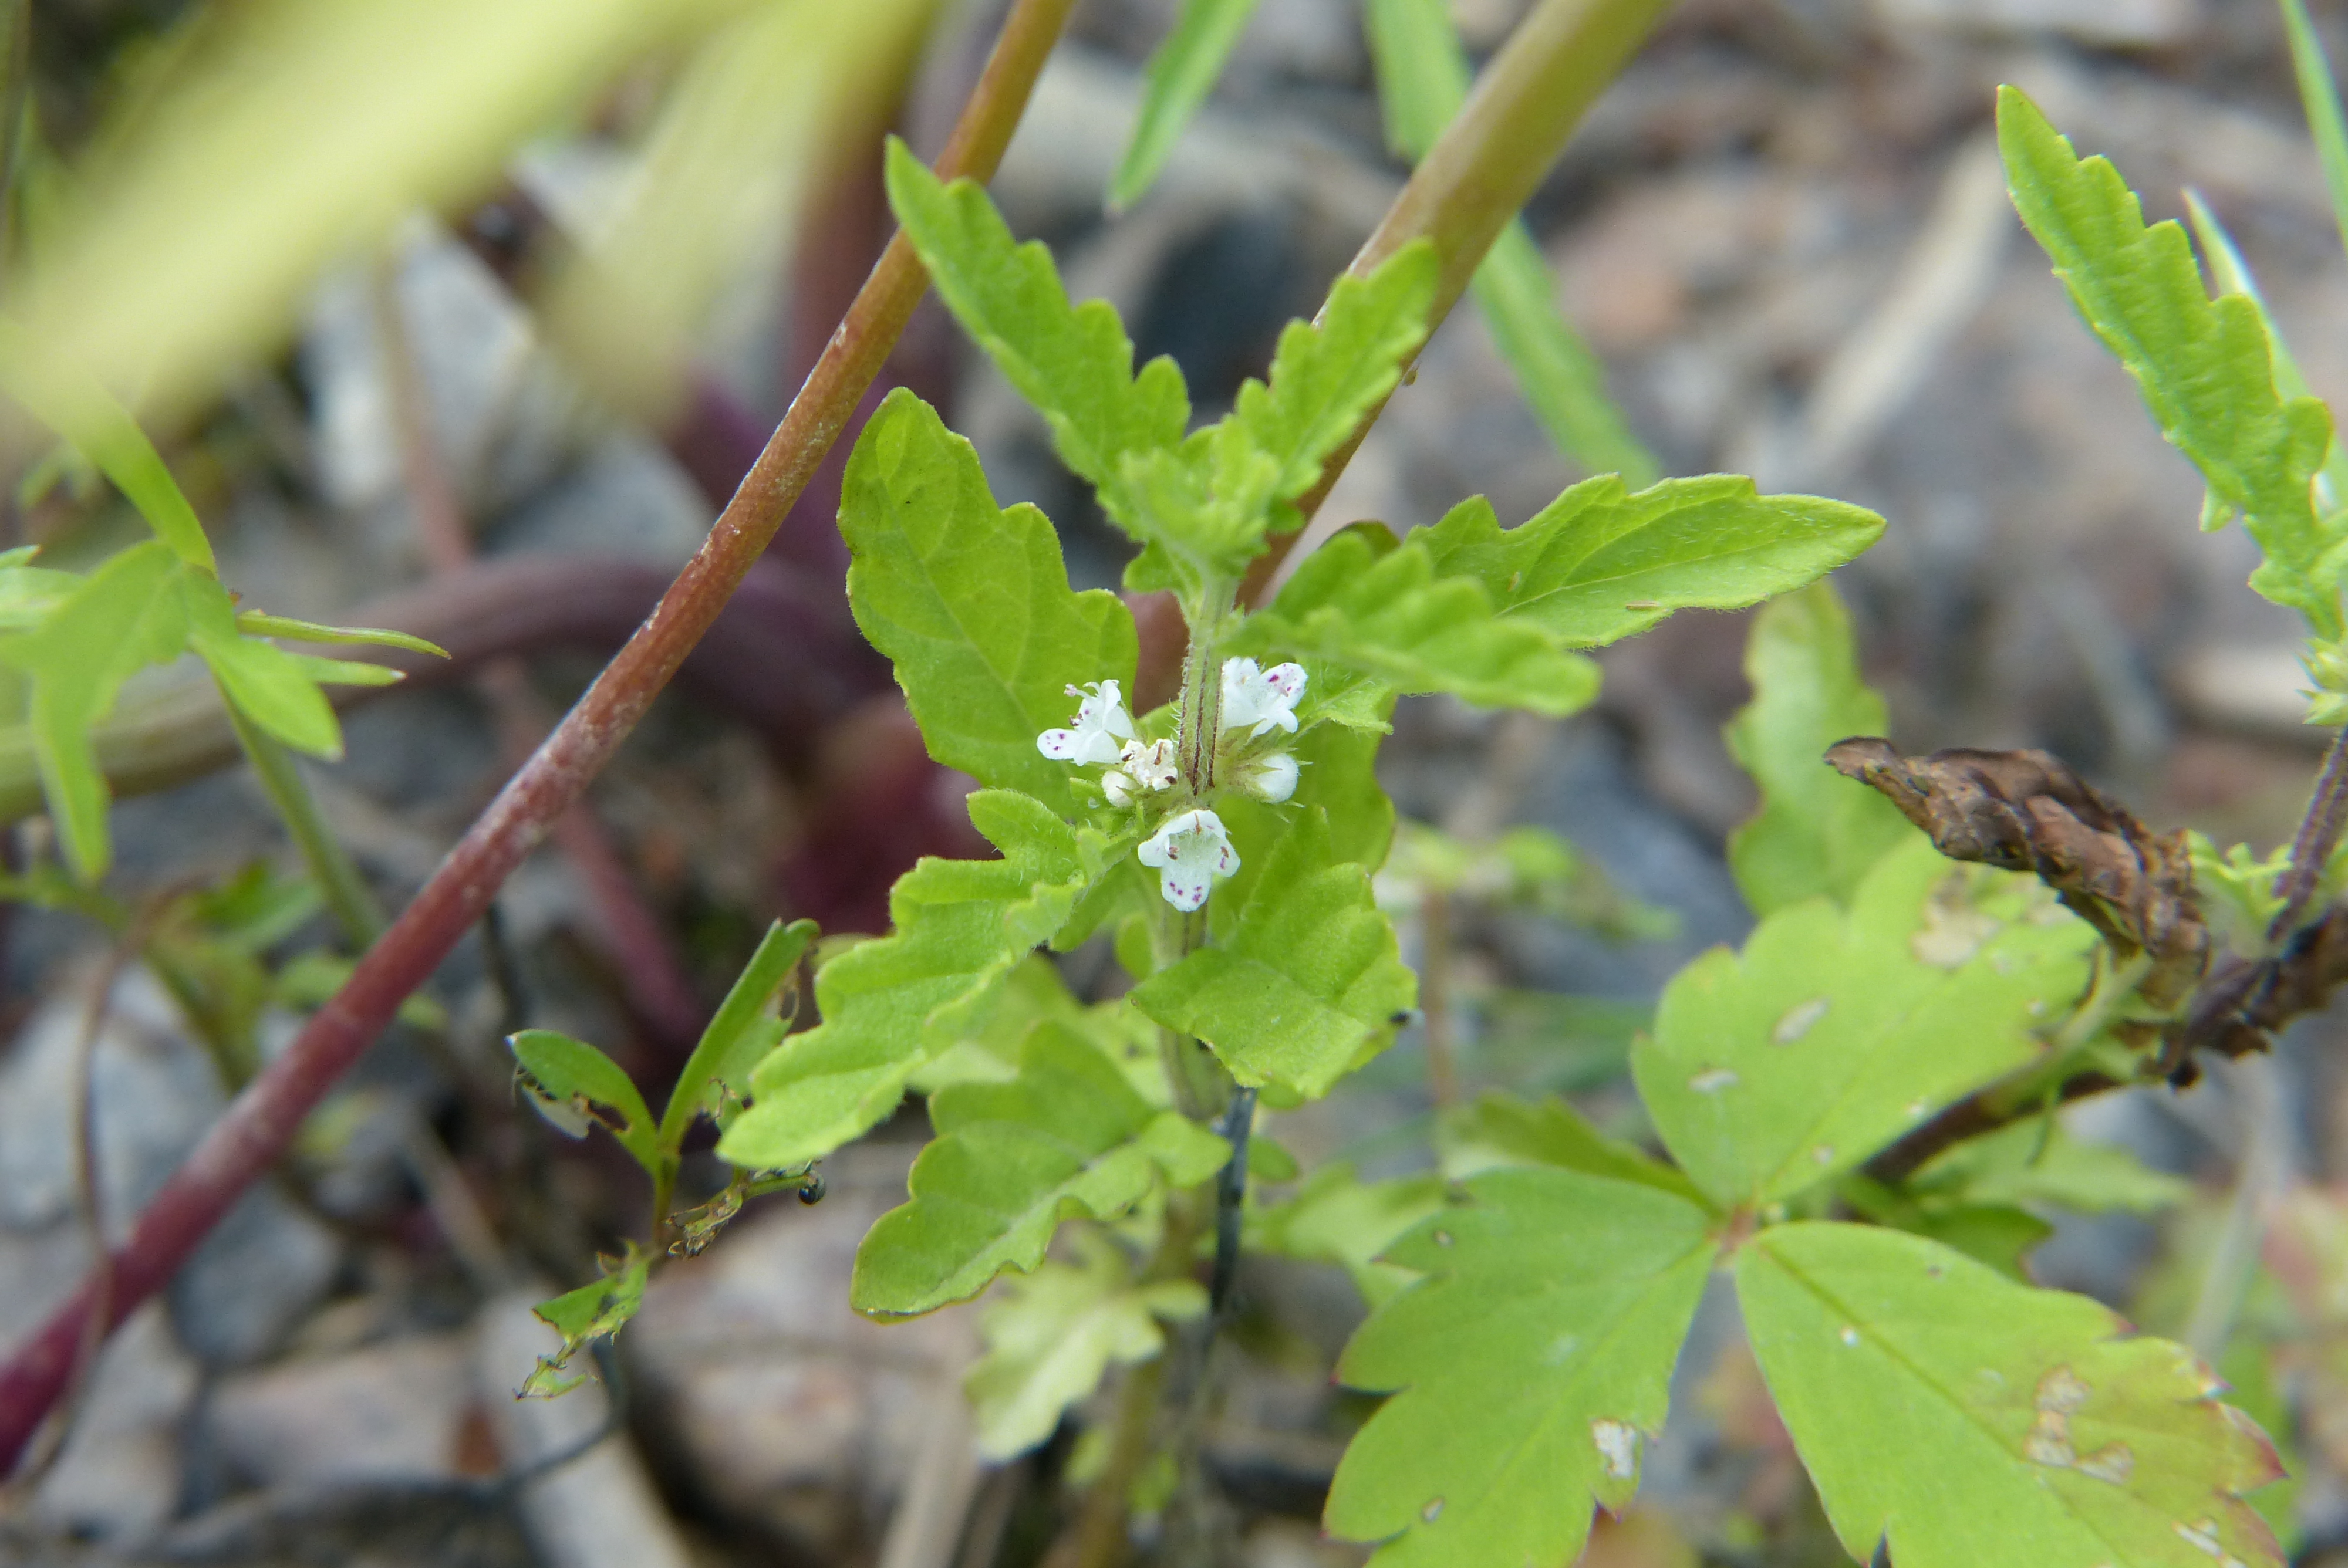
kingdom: Plantae
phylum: Tracheophyta
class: Magnoliopsida
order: Lamiales
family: Lamiaceae
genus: Lycopus
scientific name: Lycopus europaeus
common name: European bugleweed
